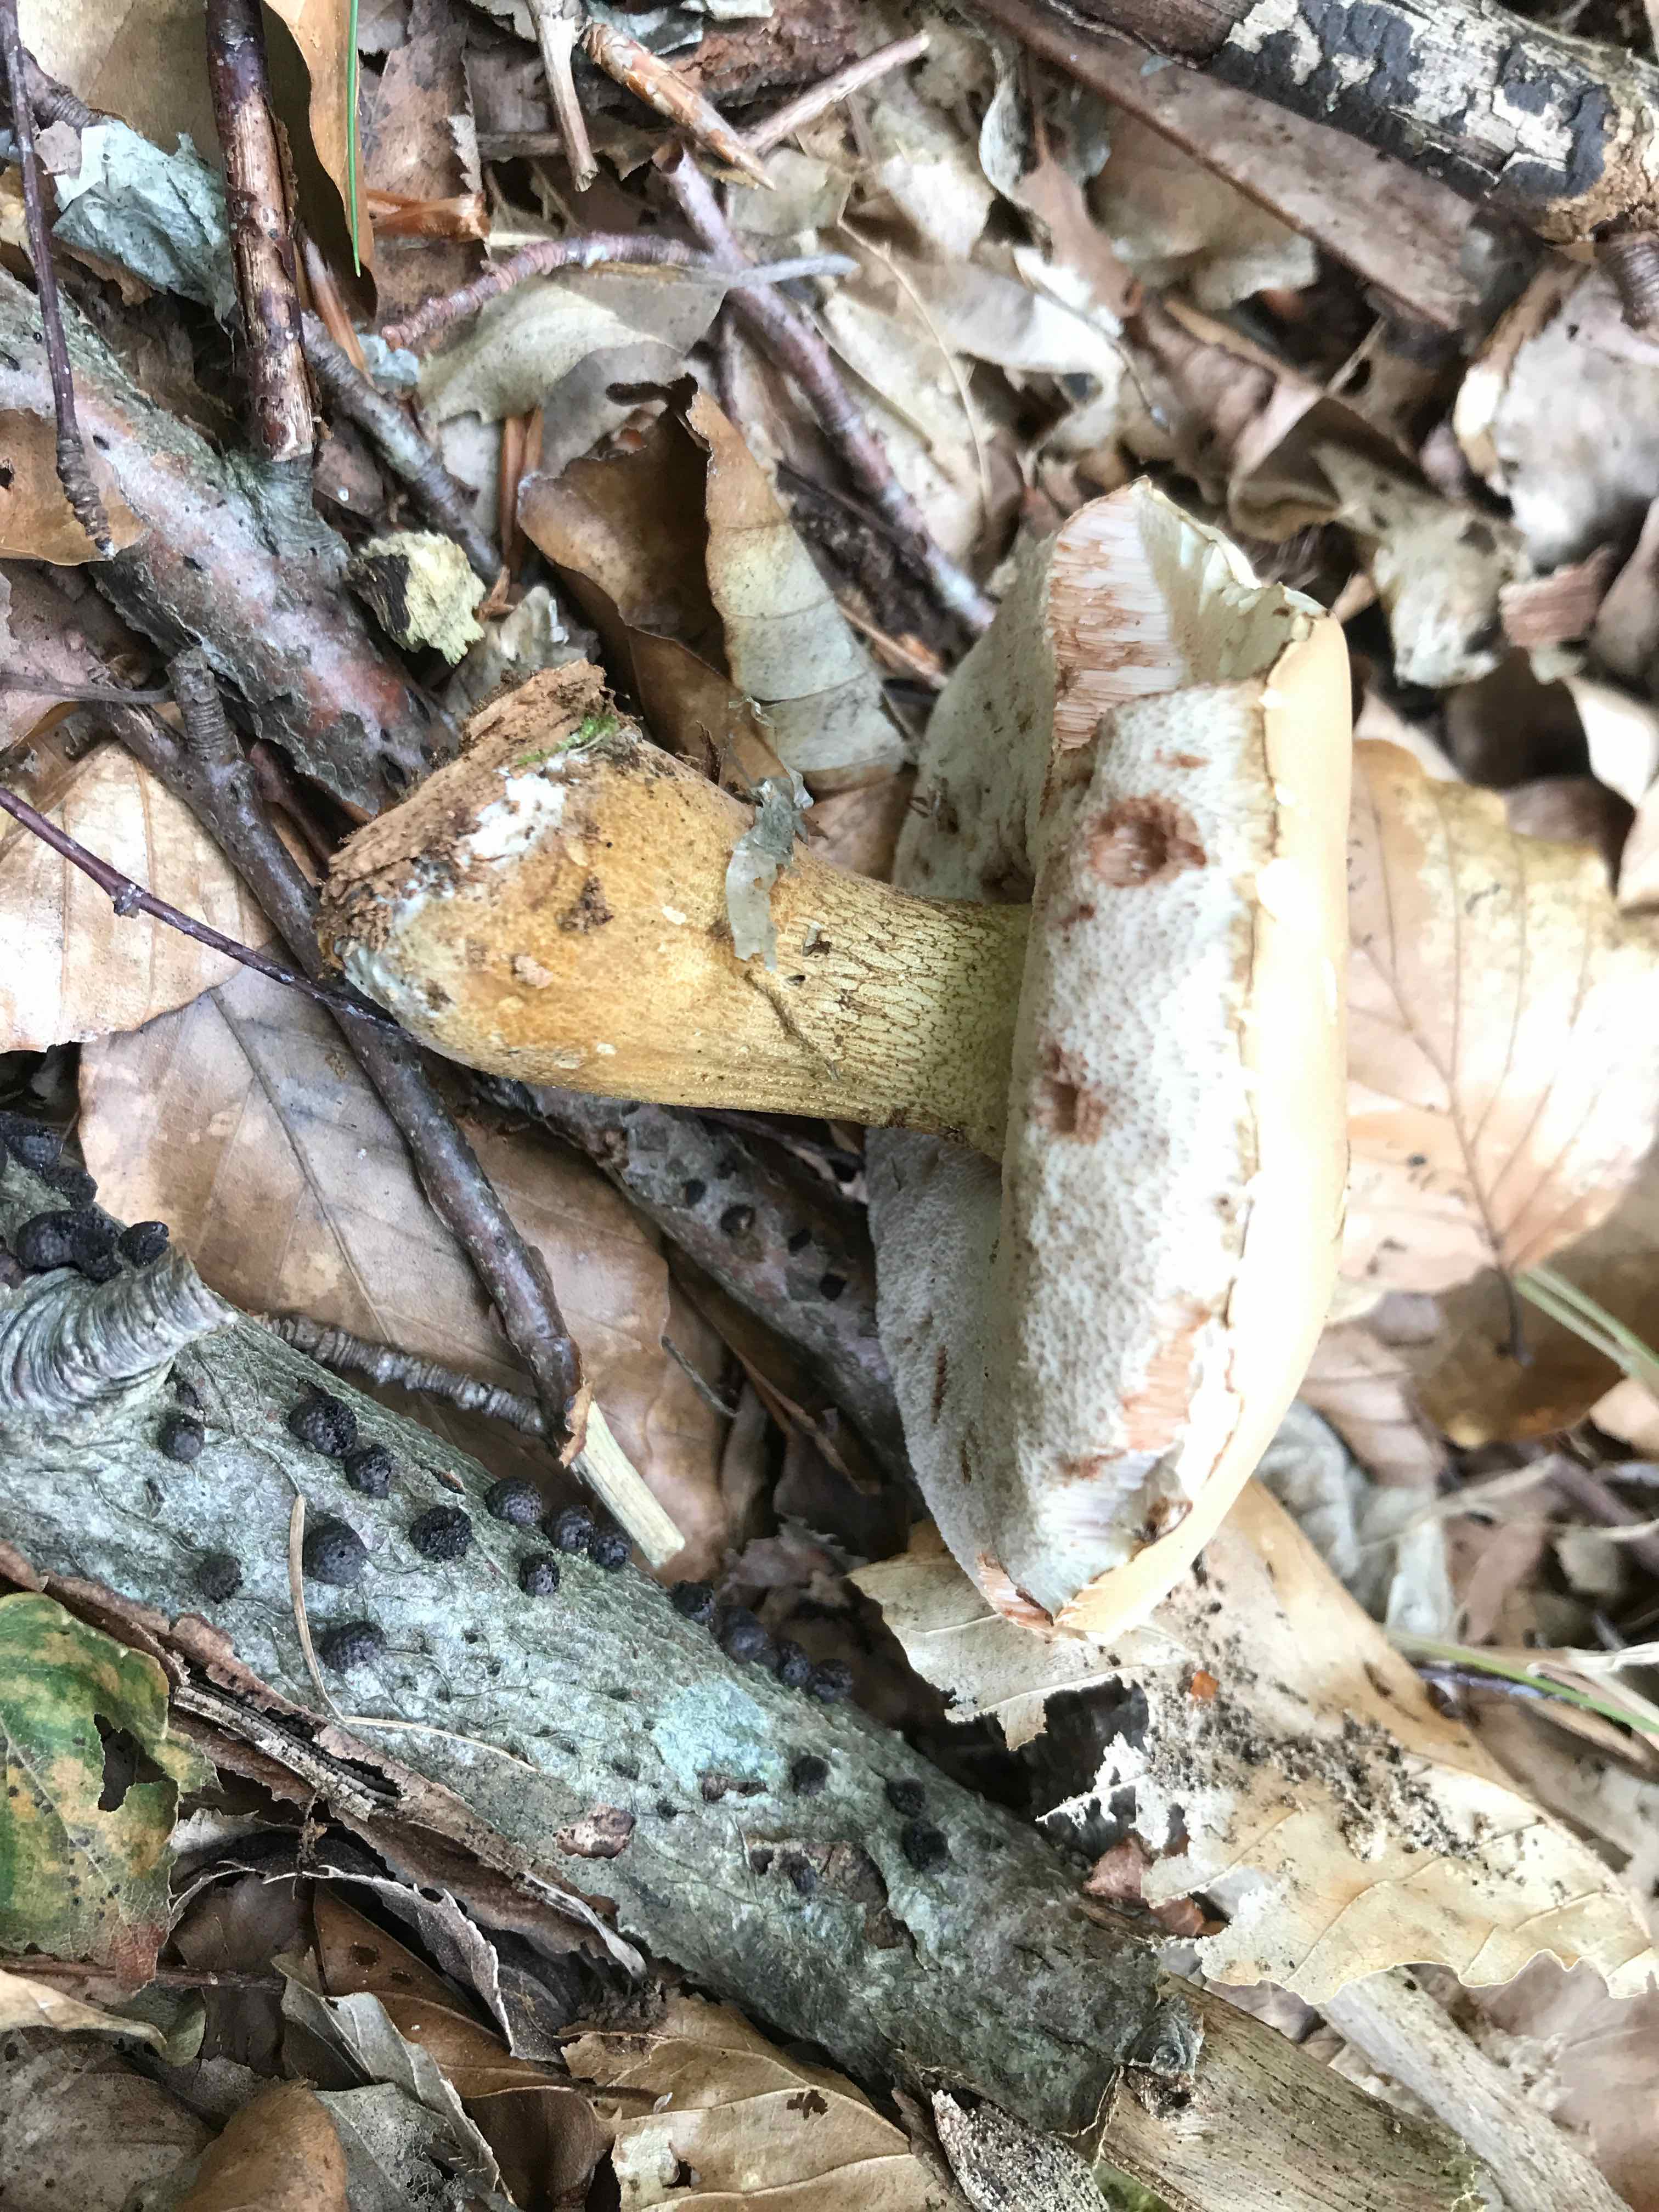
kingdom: Fungi
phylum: Basidiomycota
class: Agaricomycetes
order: Boletales
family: Boletaceae
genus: Tylopilus
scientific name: Tylopilus felleus
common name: galderørhat
